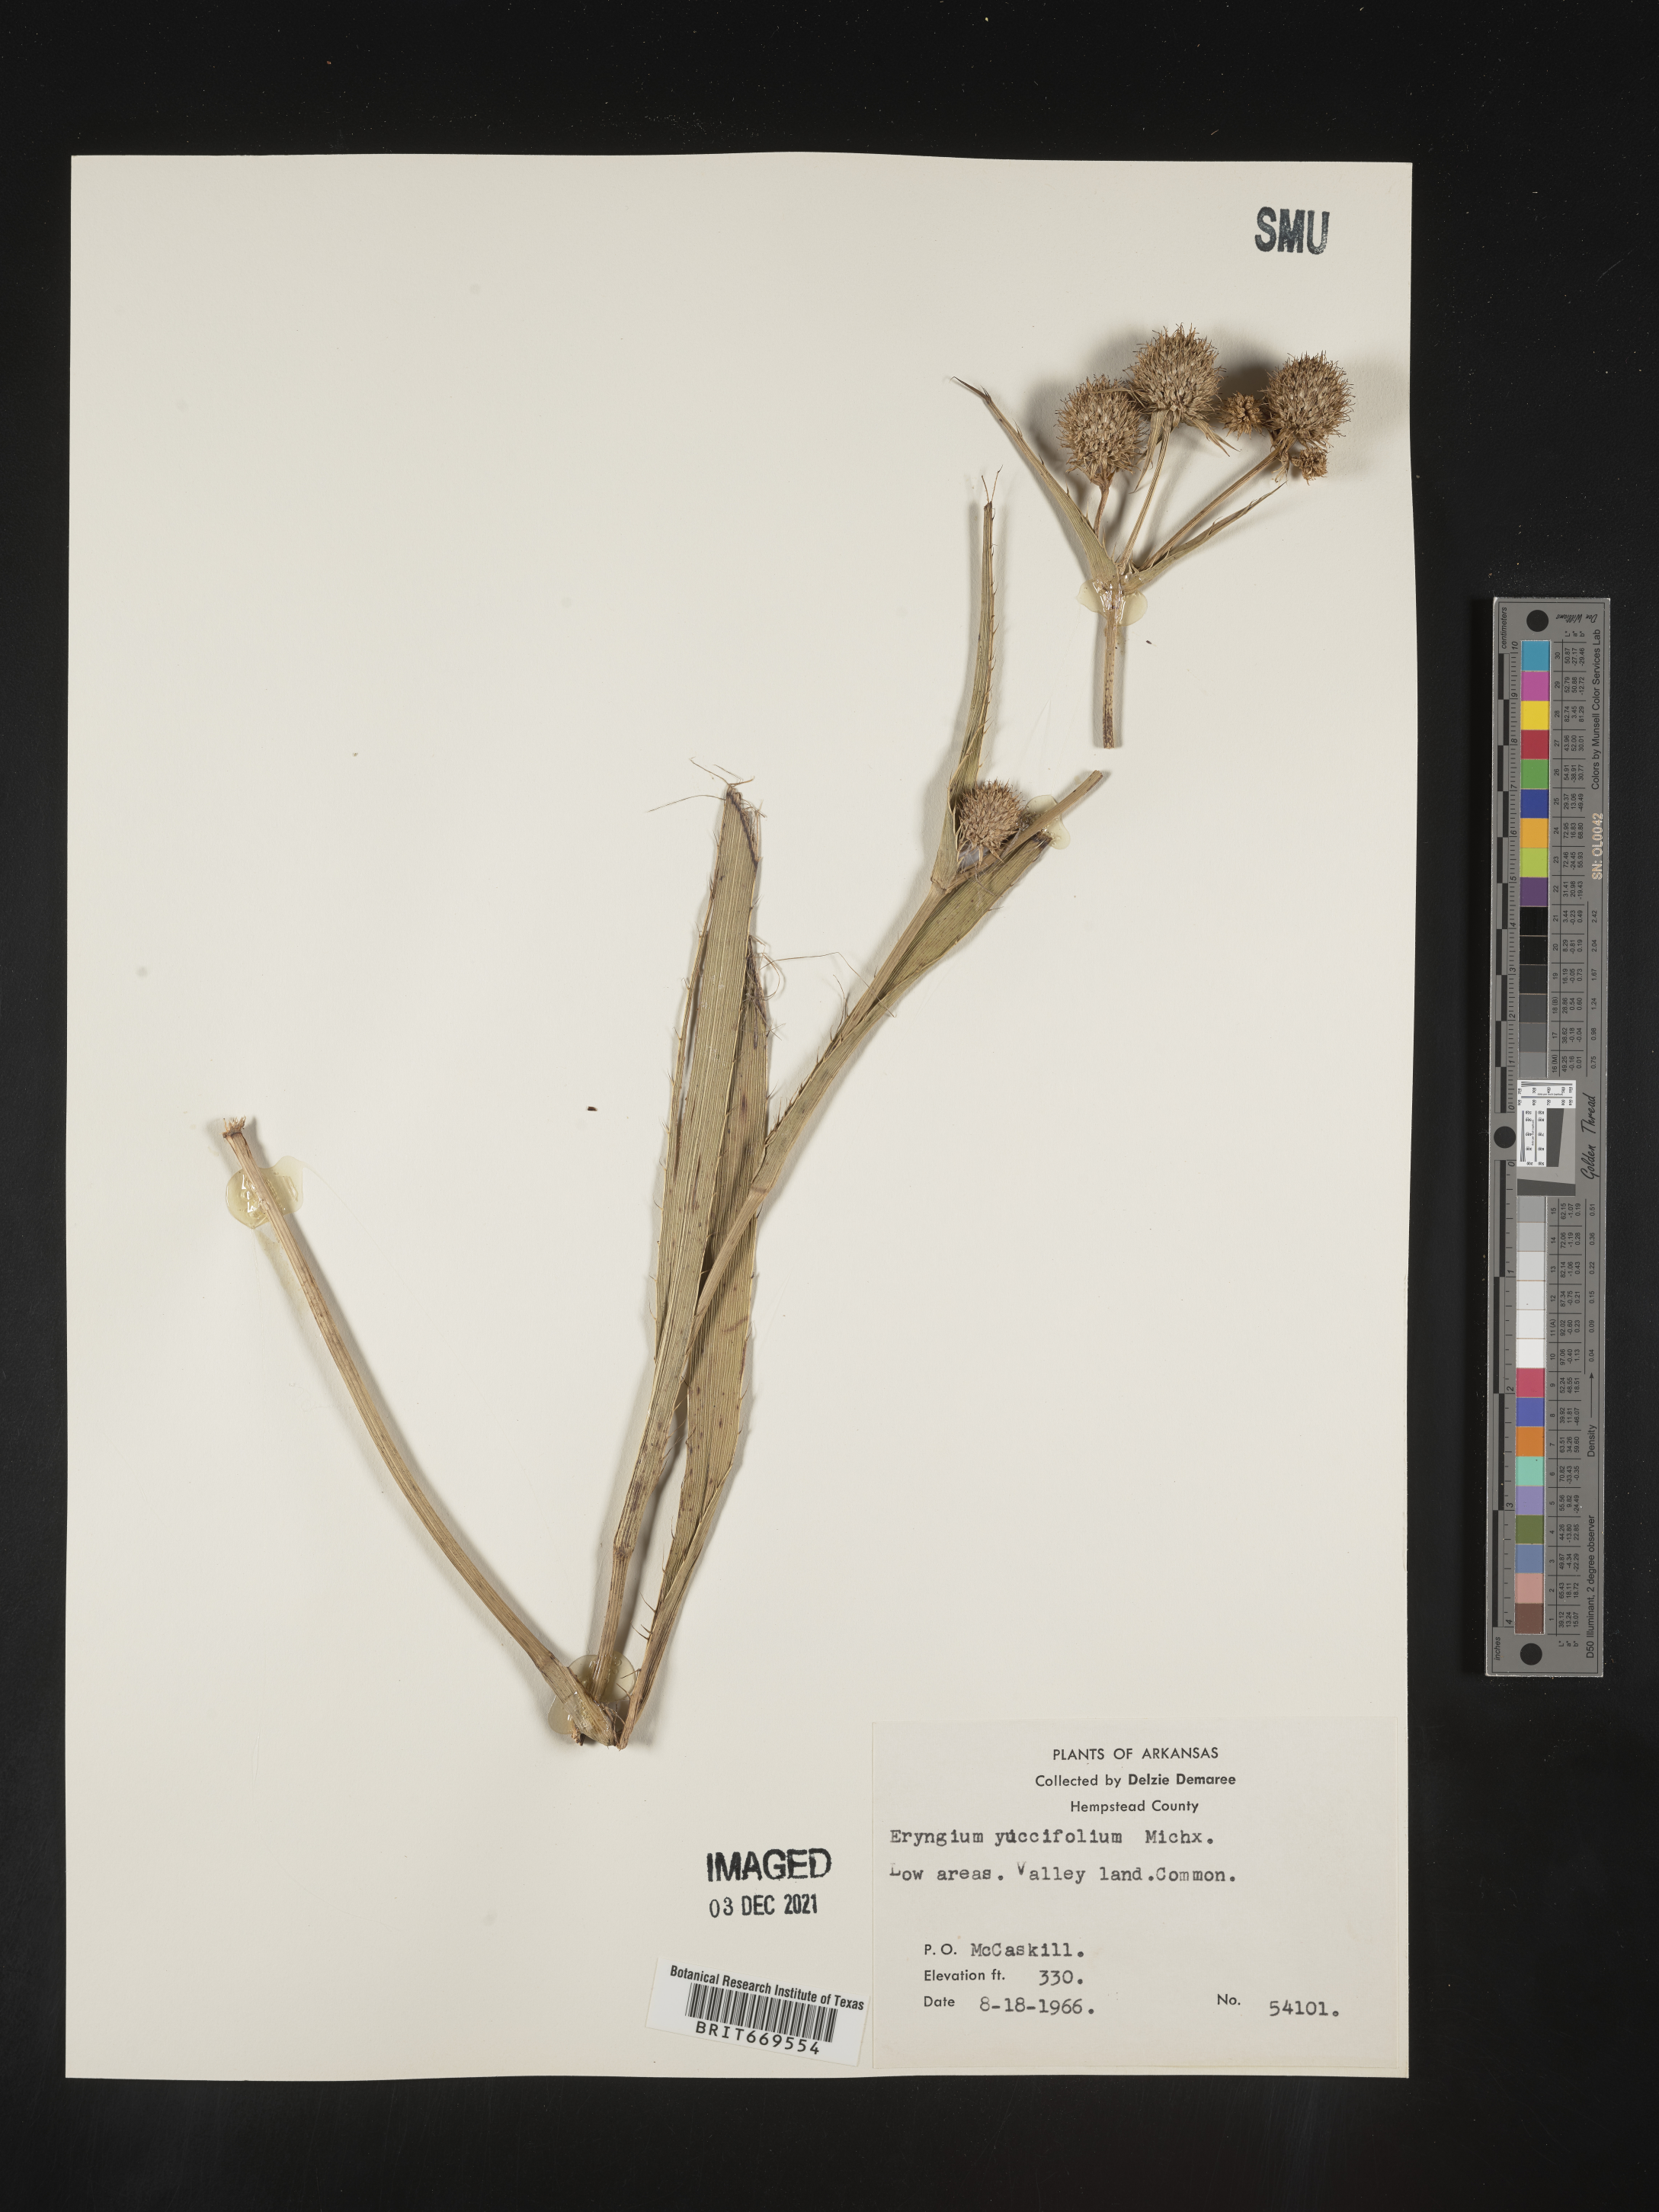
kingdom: Plantae
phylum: Tracheophyta
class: Magnoliopsida
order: Apiales
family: Apiaceae
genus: Eryngium
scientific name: Eryngium yuccifolium
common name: Button eryngo
